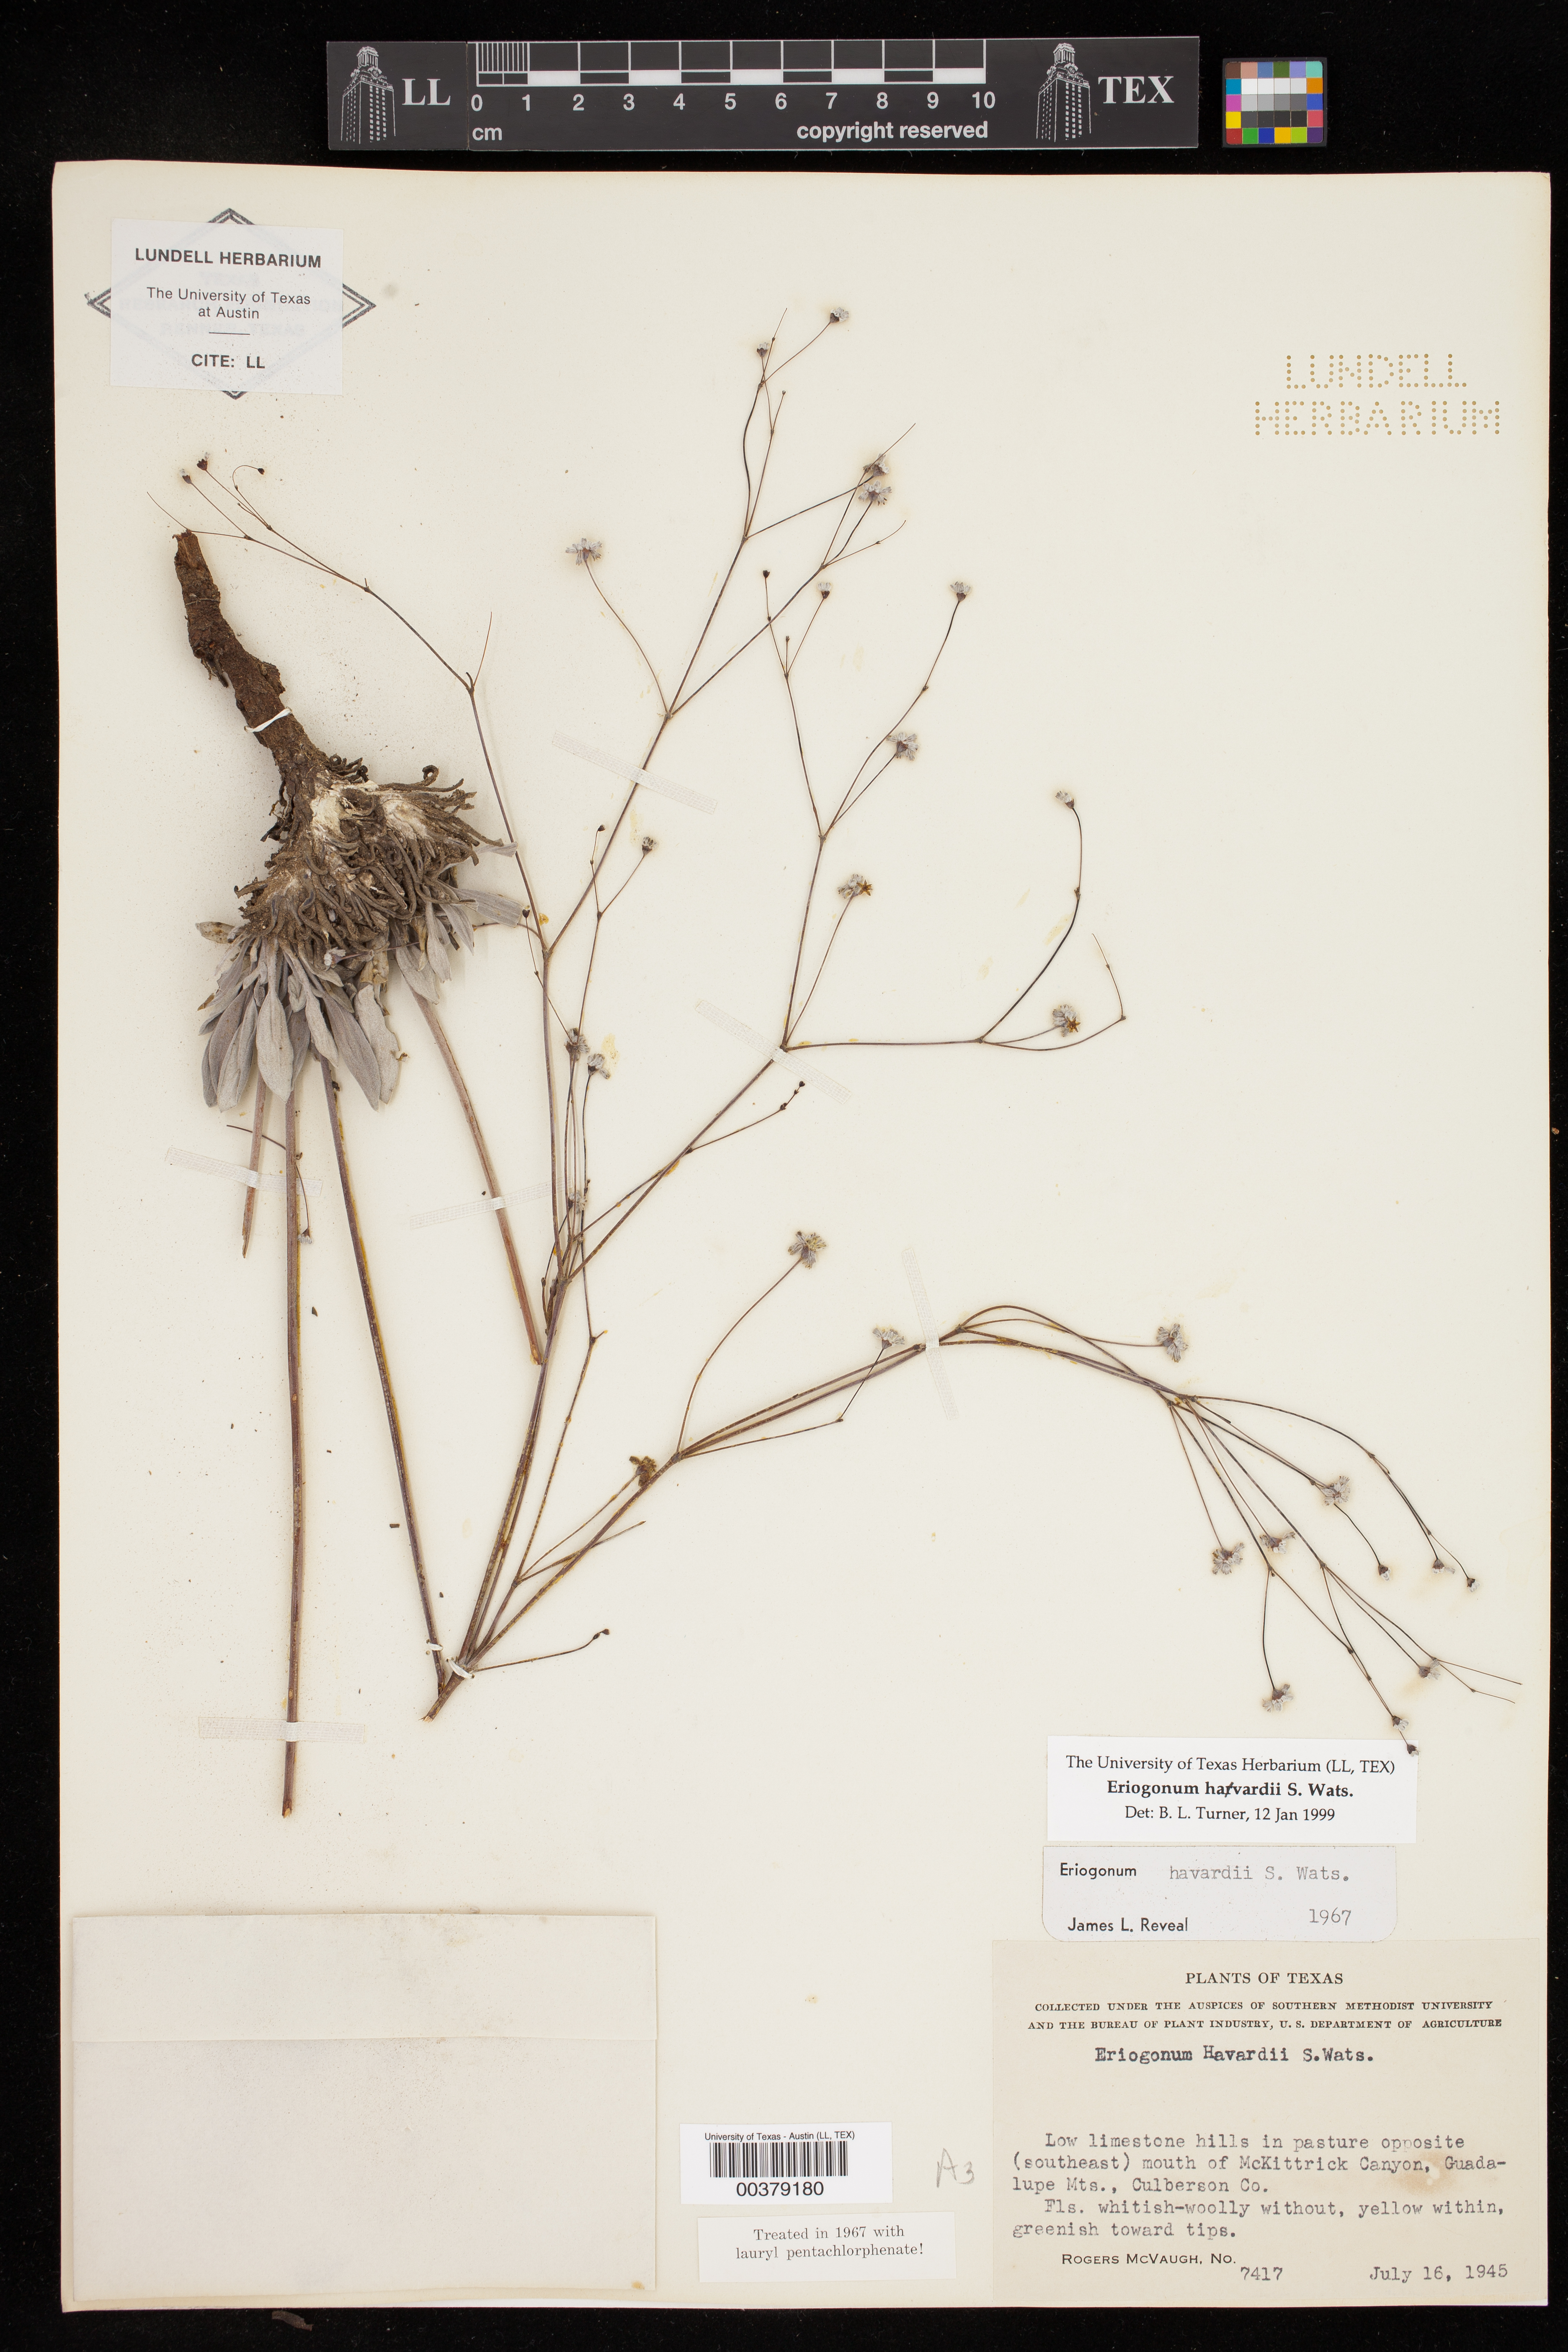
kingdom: Plantae
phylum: Tracheophyta
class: Magnoliopsida
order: Caryophyllales
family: Polygonaceae
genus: Eriogonum
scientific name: Eriogonum havardii
